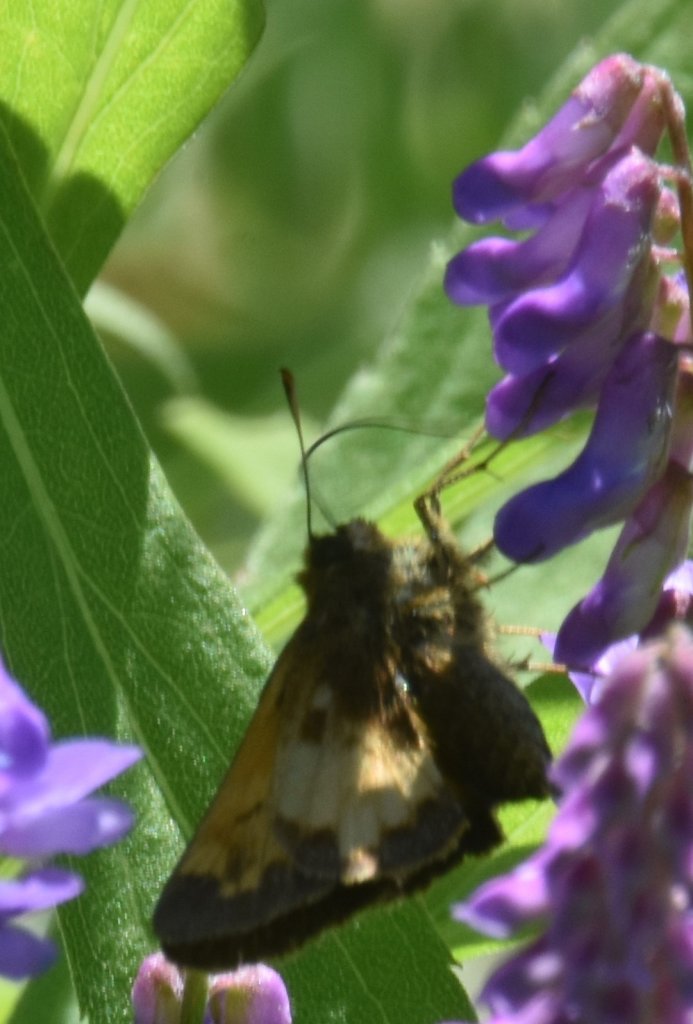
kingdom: Animalia
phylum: Arthropoda
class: Insecta
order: Lepidoptera
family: Hesperiidae
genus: Lon
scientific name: Lon hobomok
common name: Hobomok Skipper
